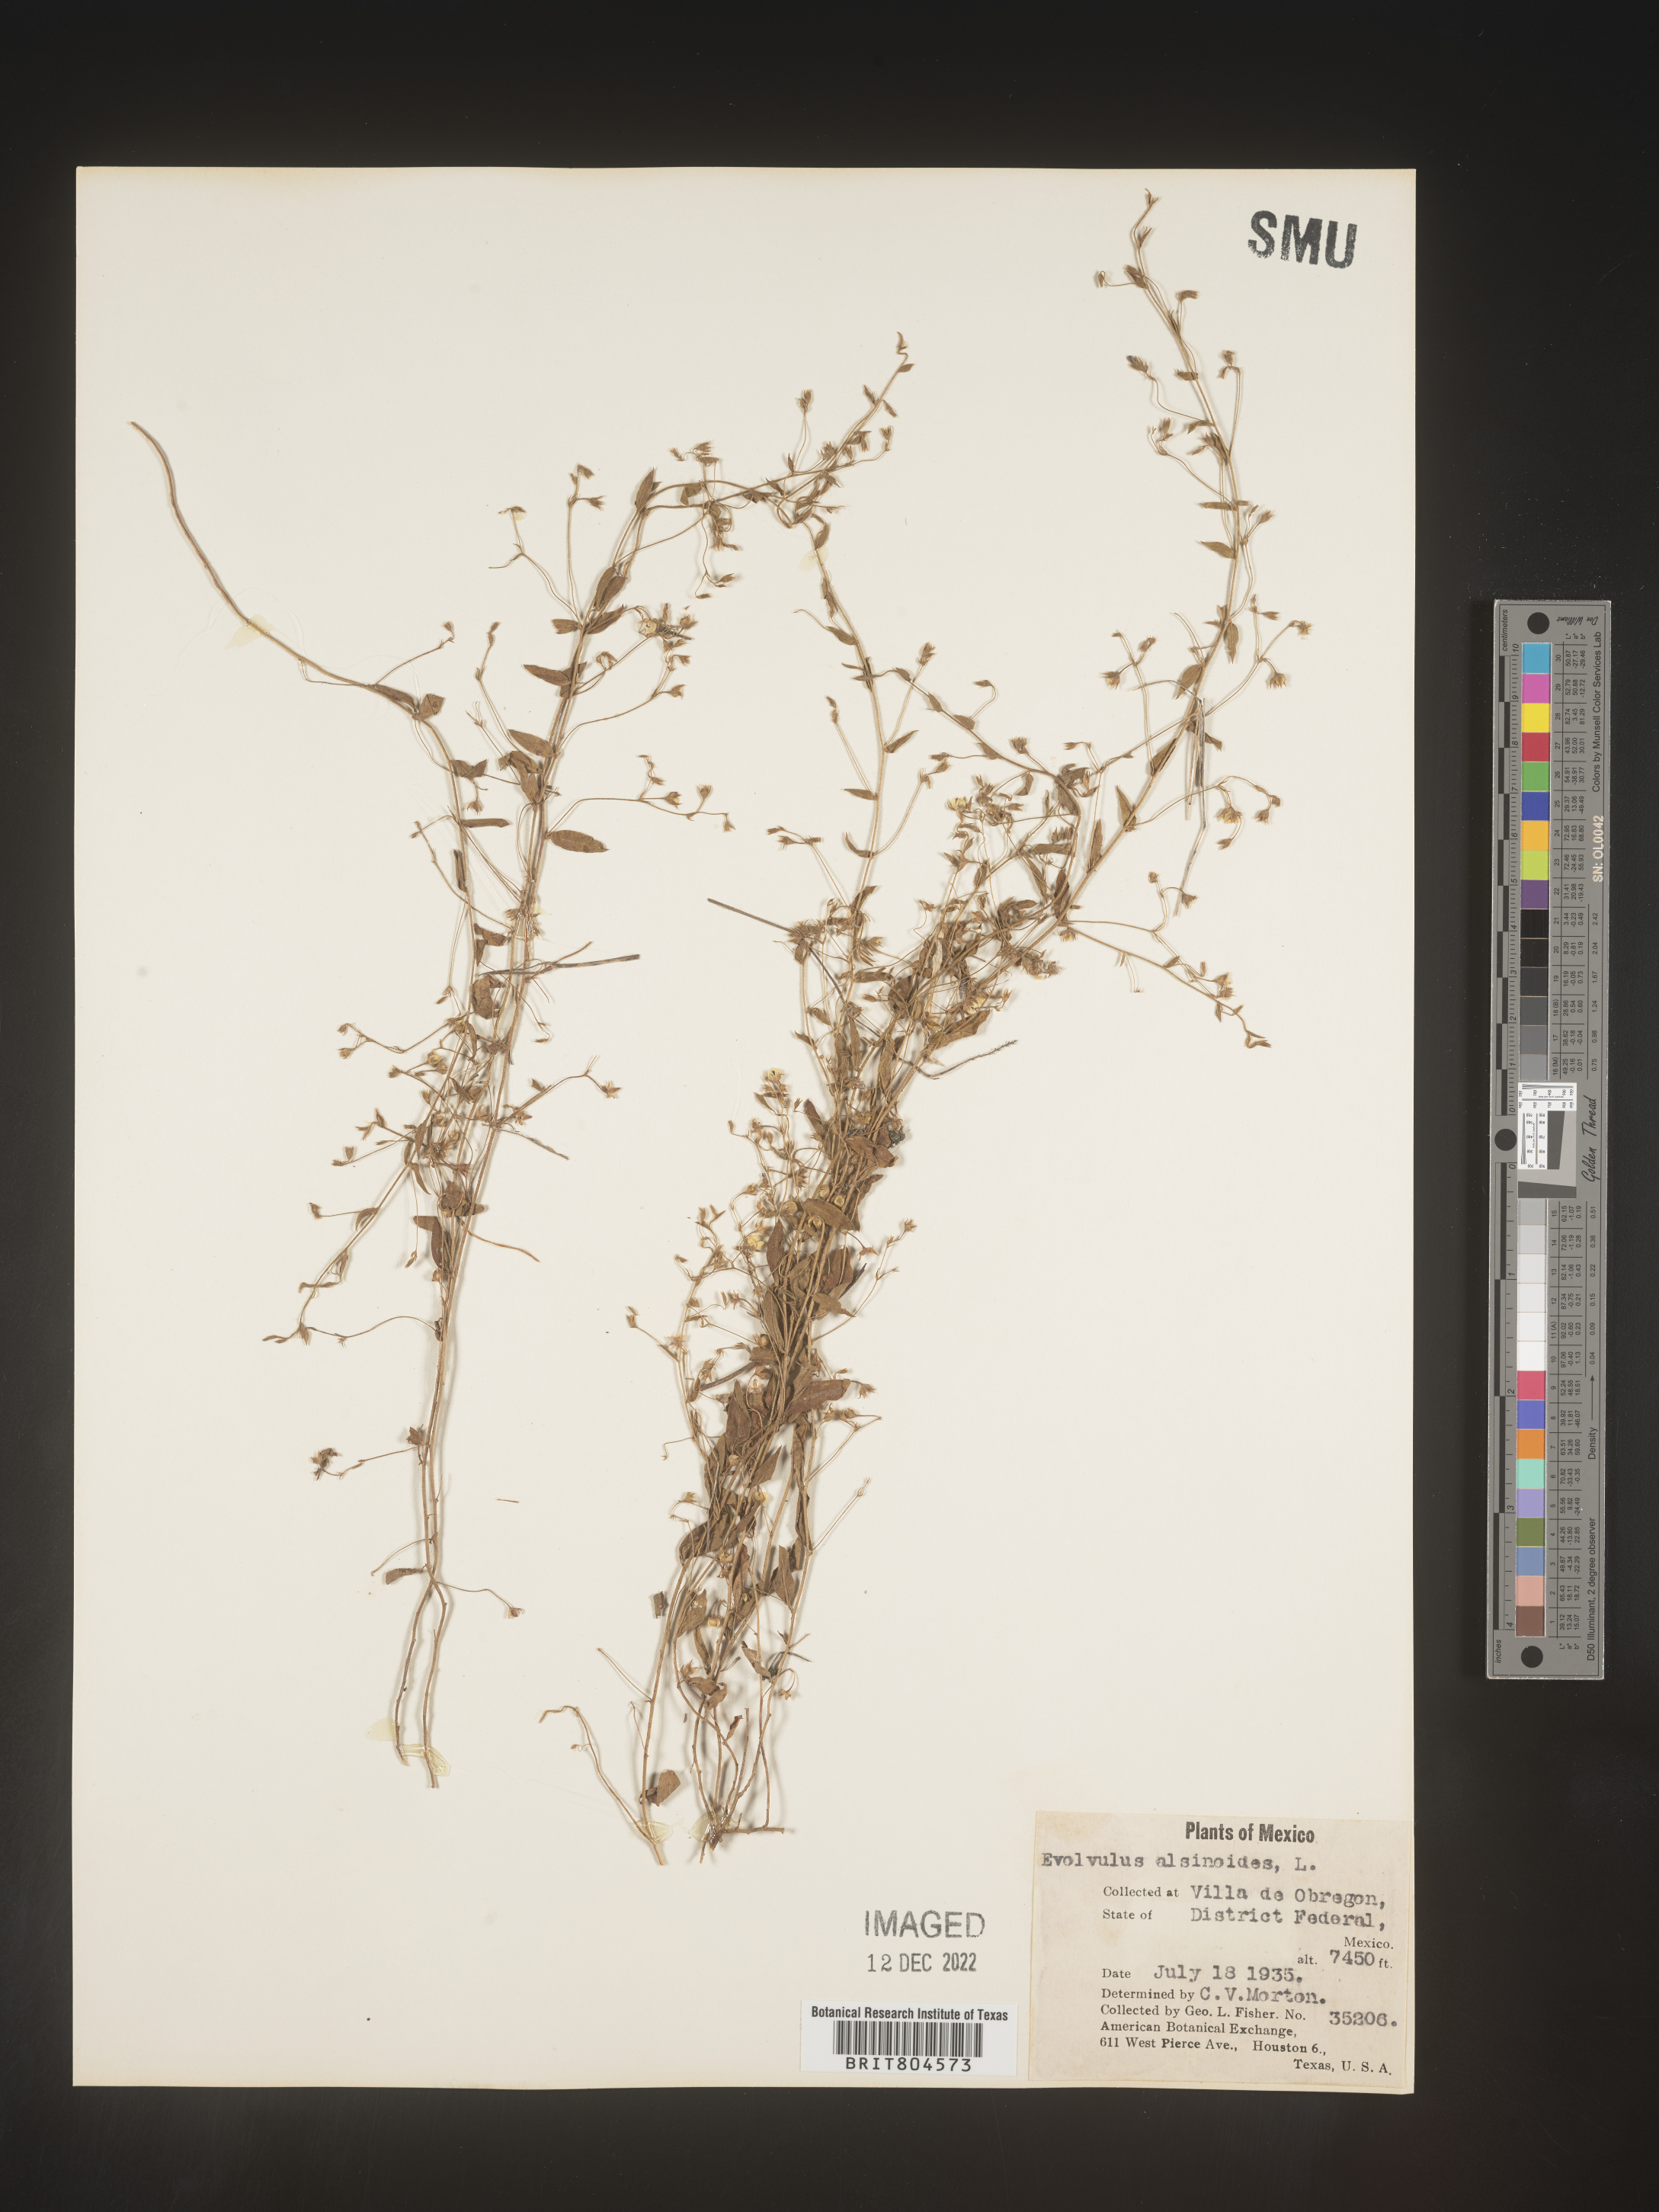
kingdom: Plantae
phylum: Tracheophyta
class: Magnoliopsida
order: Solanales
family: Convolvulaceae
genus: Evolvulus
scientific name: Evolvulus
